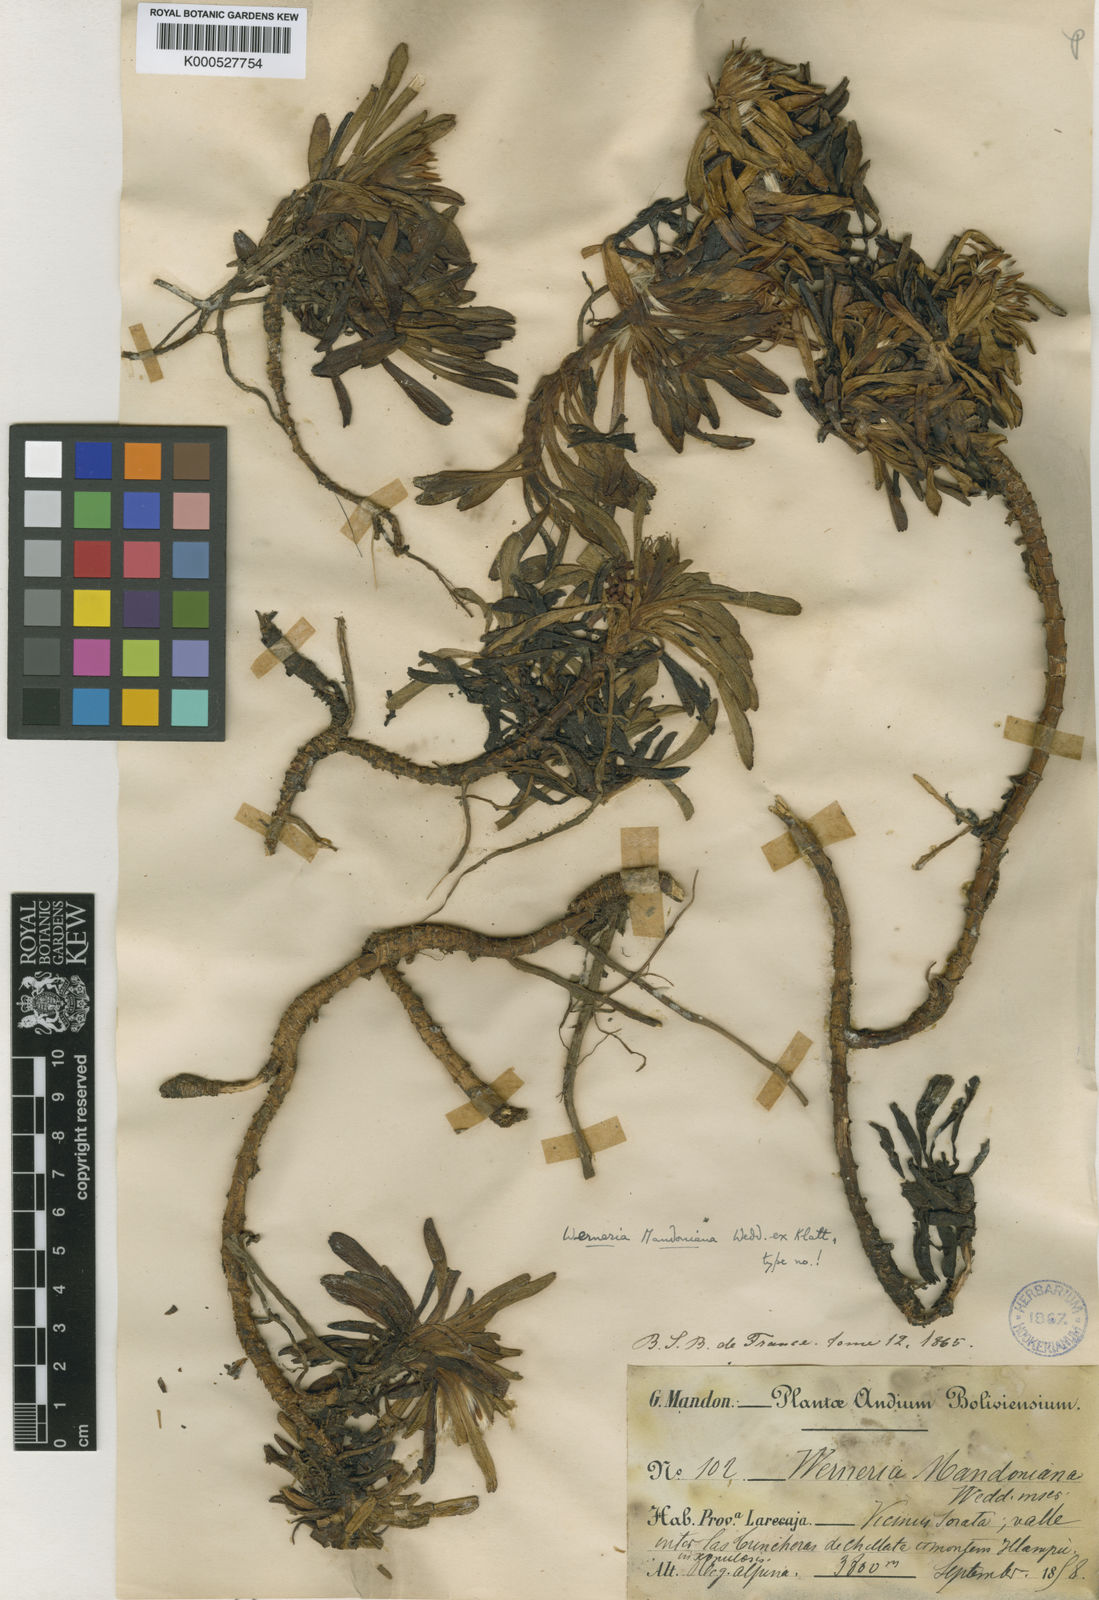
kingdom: Plantae
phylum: Tracheophyta
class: Magnoliopsida
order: Asterales
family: Asteraceae
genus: Rockhausenia
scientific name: Rockhausenia orbignyana
